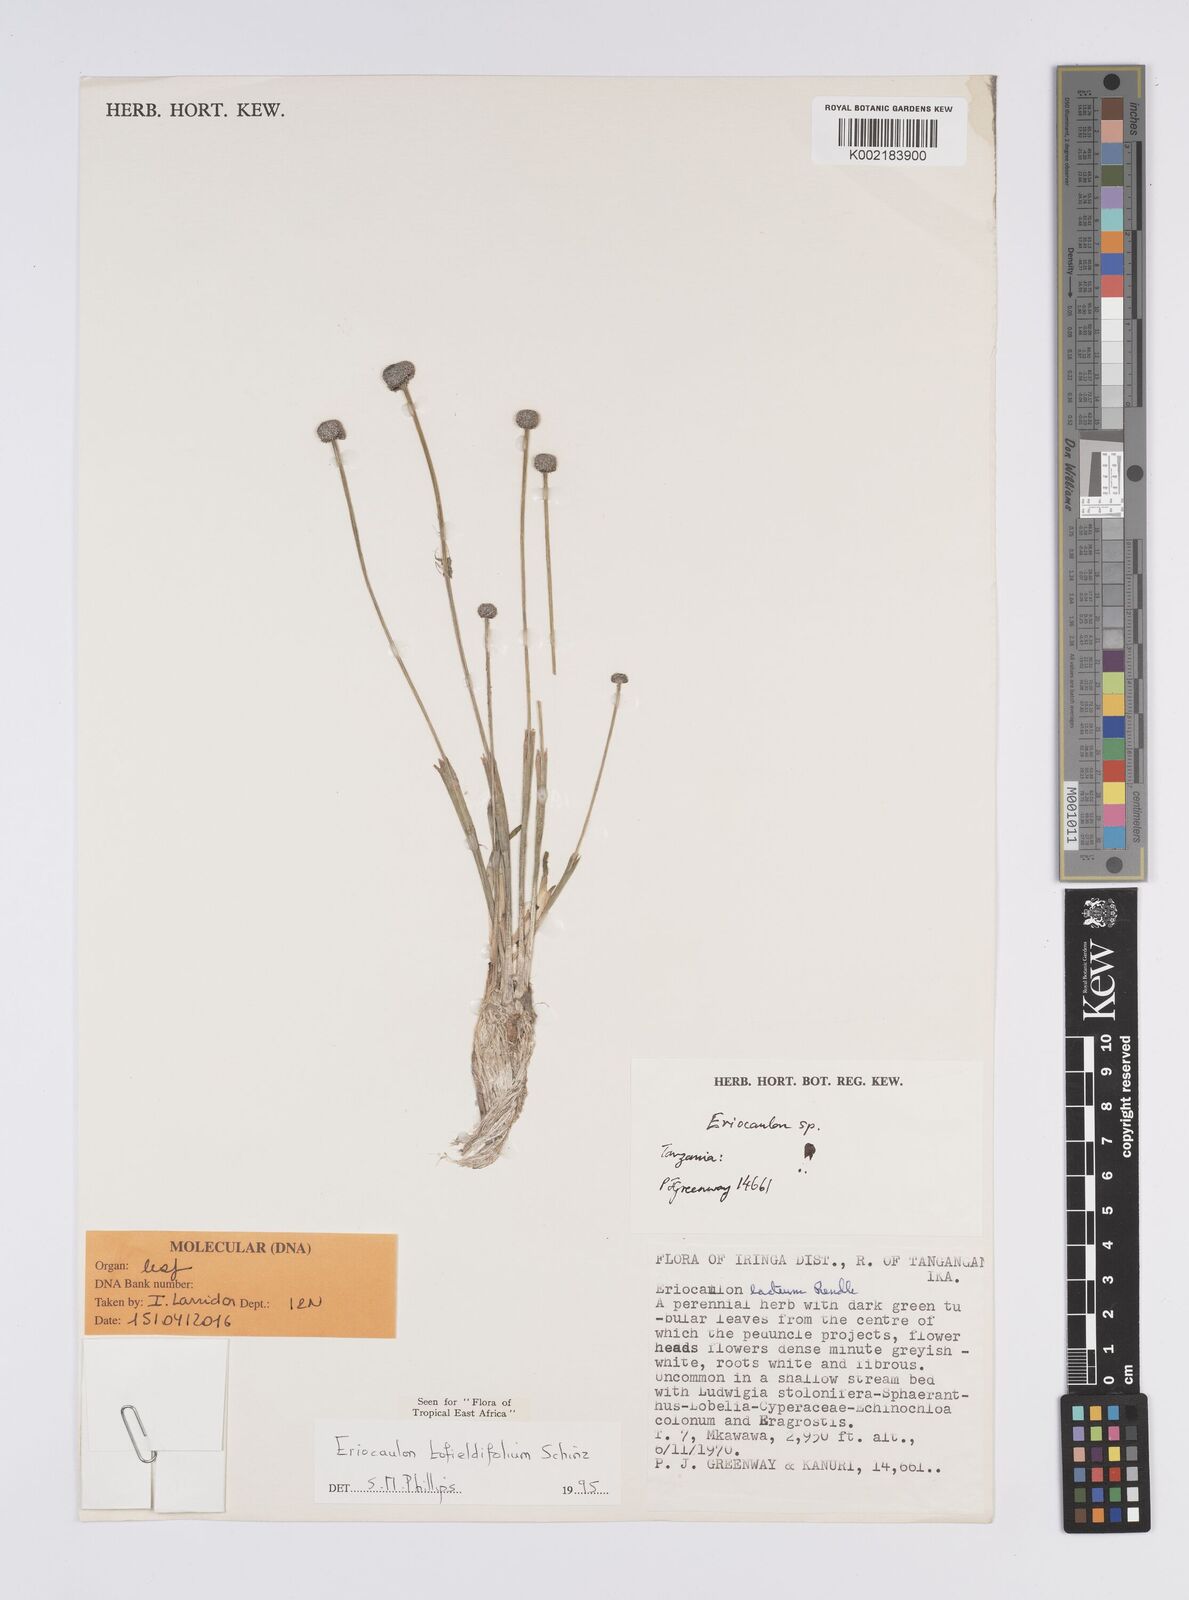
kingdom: Plantae
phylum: Tracheophyta
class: Liliopsida
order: Poales
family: Eriocaulaceae
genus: Eriocaulon
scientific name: Eriocaulon transvaalicum
